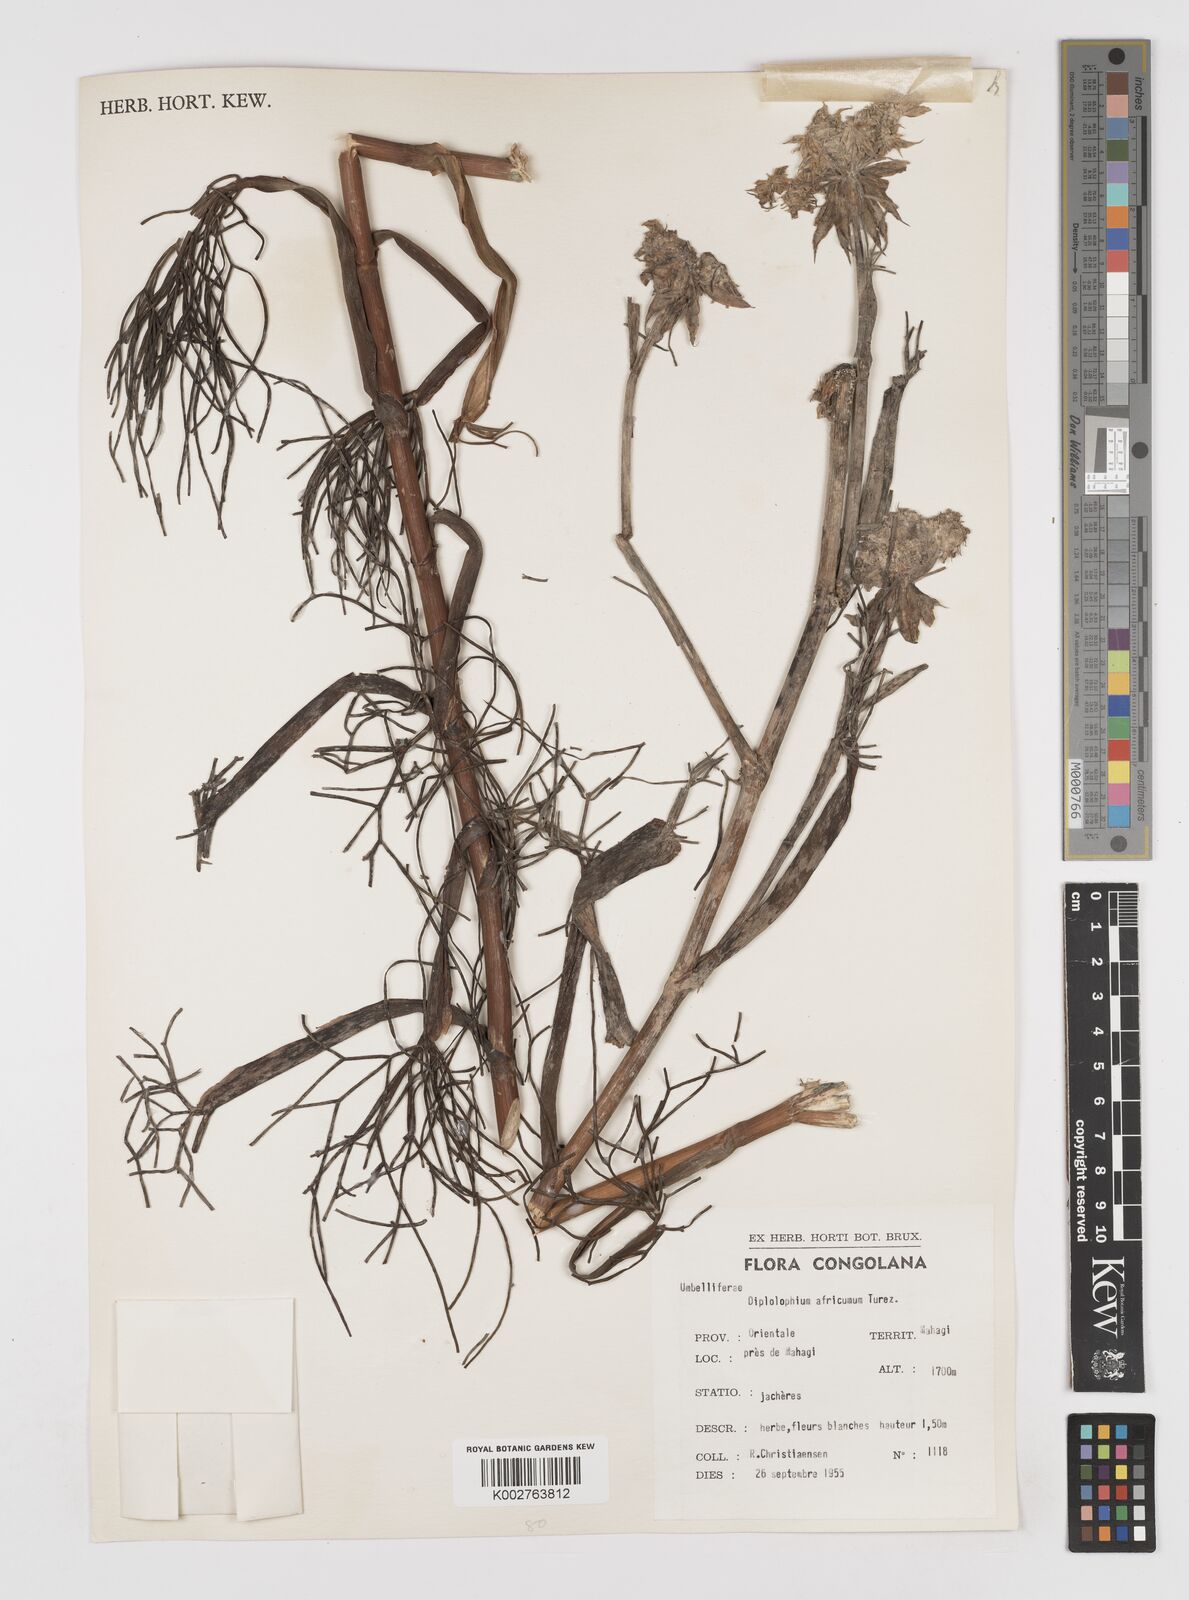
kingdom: Plantae
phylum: Tracheophyta
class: Magnoliopsida
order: Apiales
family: Apiaceae
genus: Diplolophium
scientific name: Diplolophium africanum
